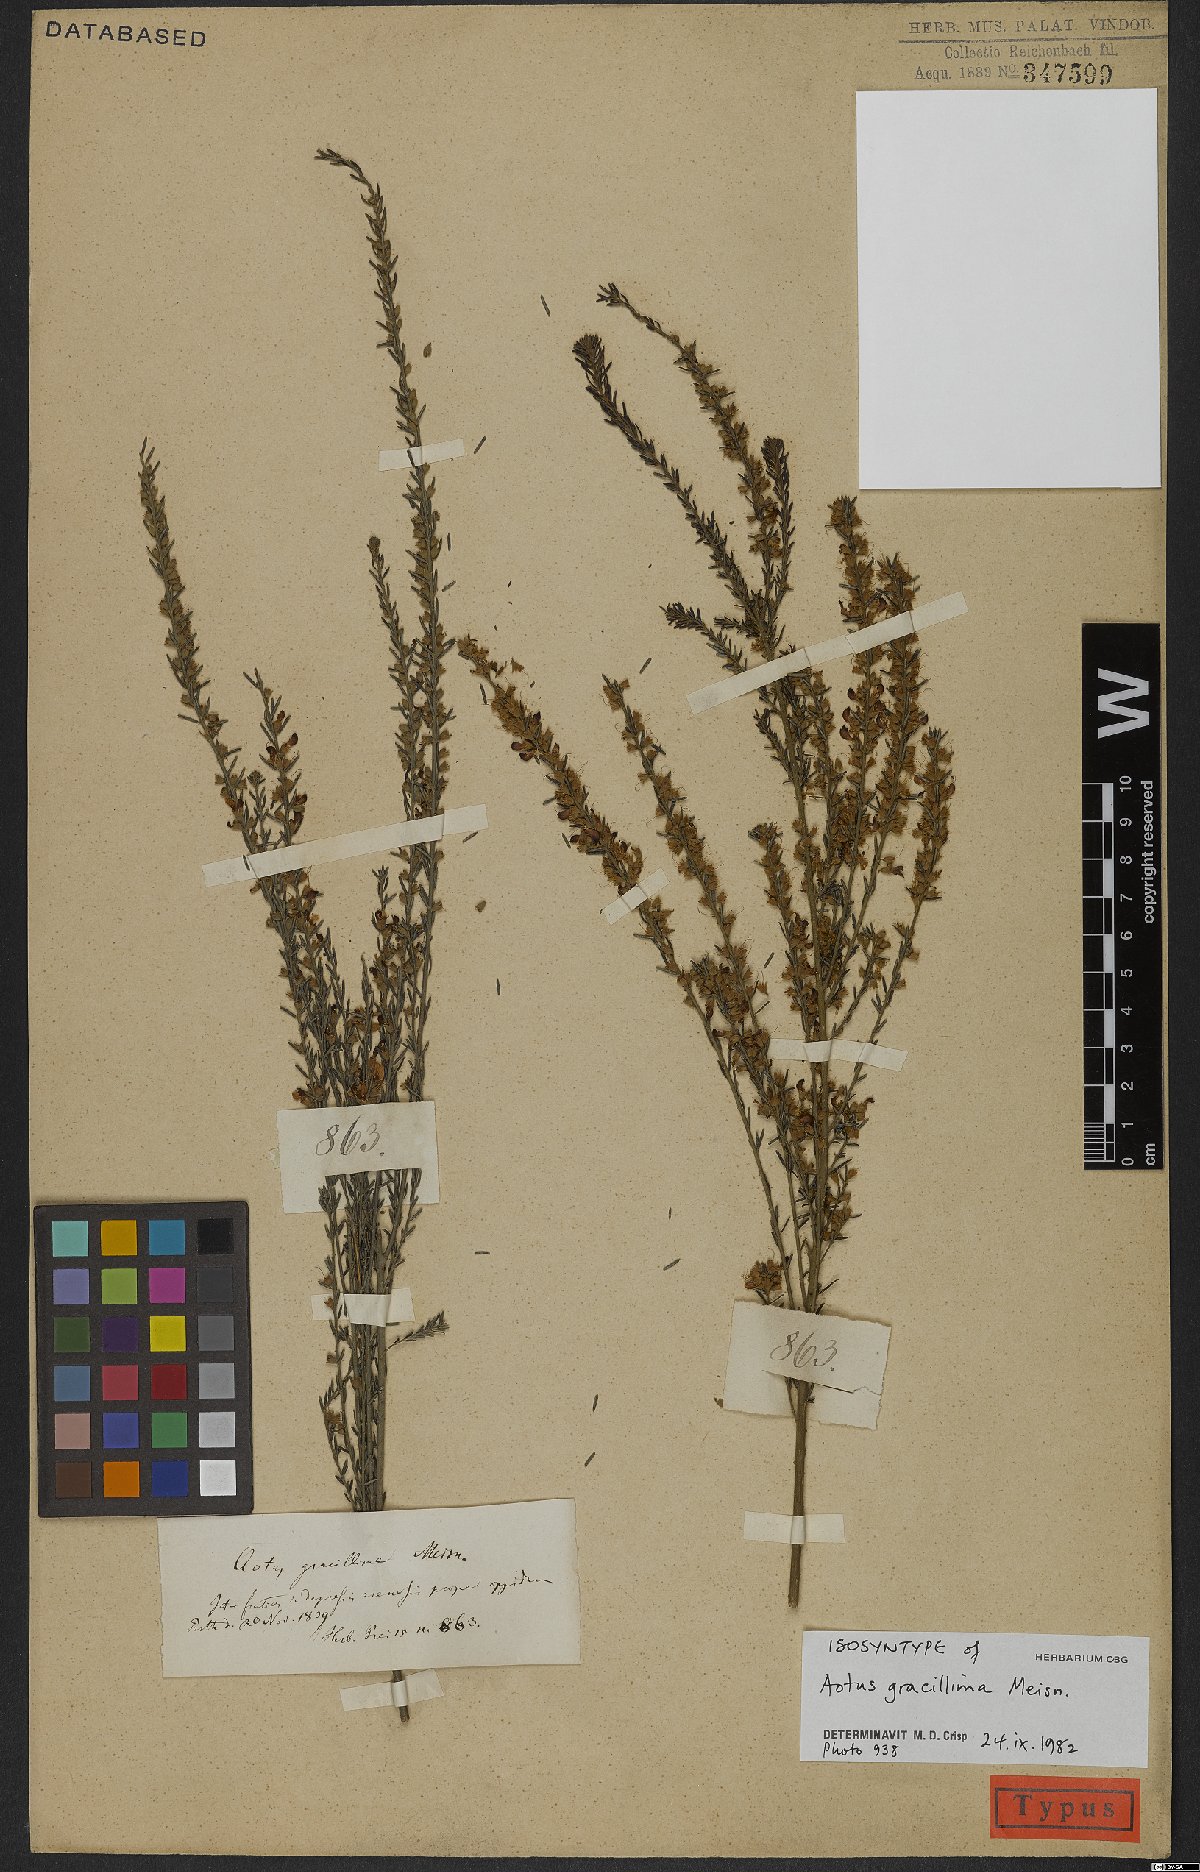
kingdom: Plantae
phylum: Tracheophyta
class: Magnoliopsida
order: Fabales
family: Fabaceae
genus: Aotus
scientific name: Aotus gracillima
